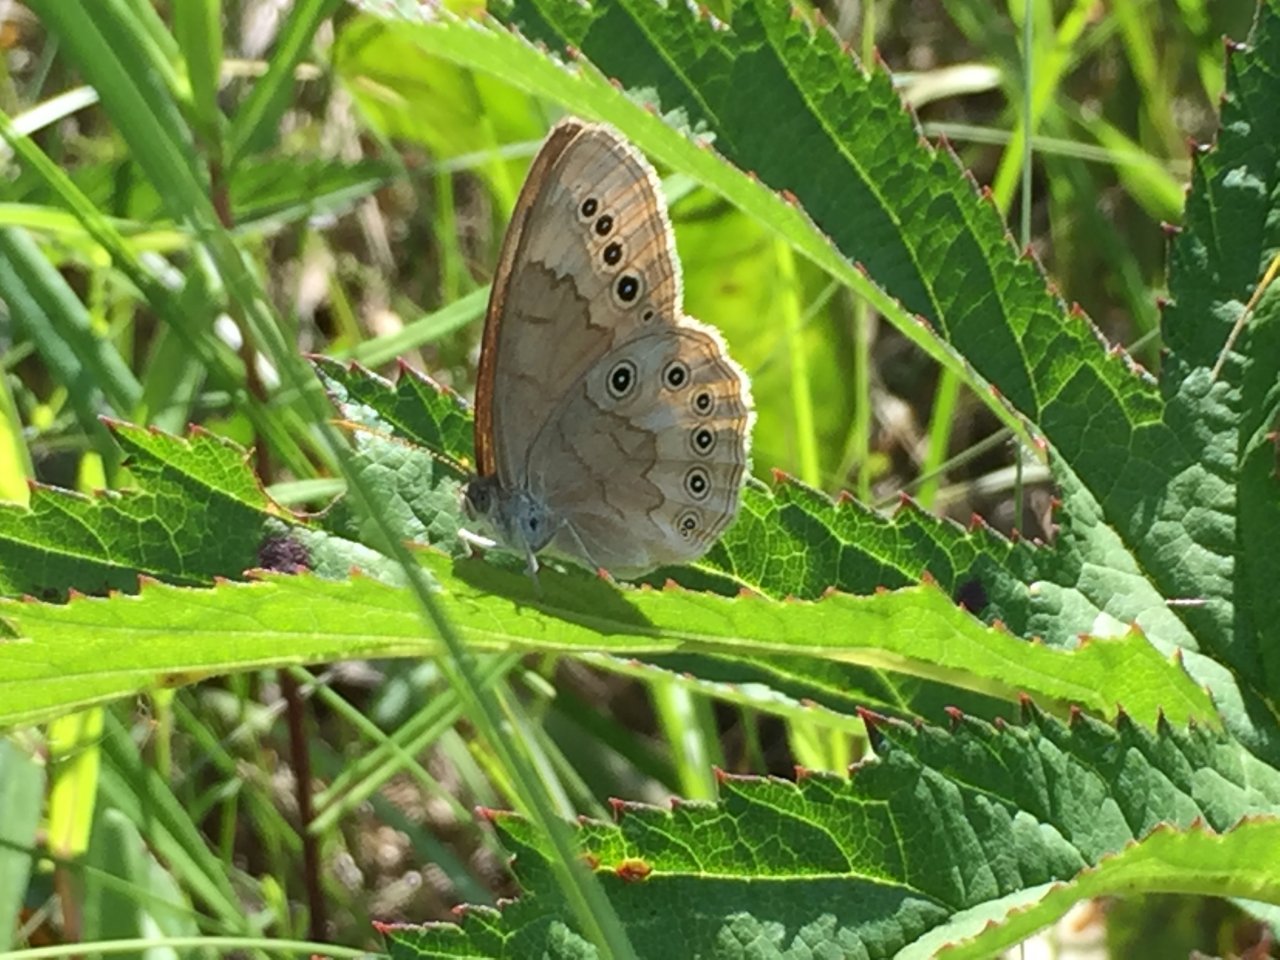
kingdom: Animalia
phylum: Arthropoda
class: Insecta
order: Lepidoptera
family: Nymphalidae
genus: Lethe
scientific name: Lethe eurydice
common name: Eyed Brown
